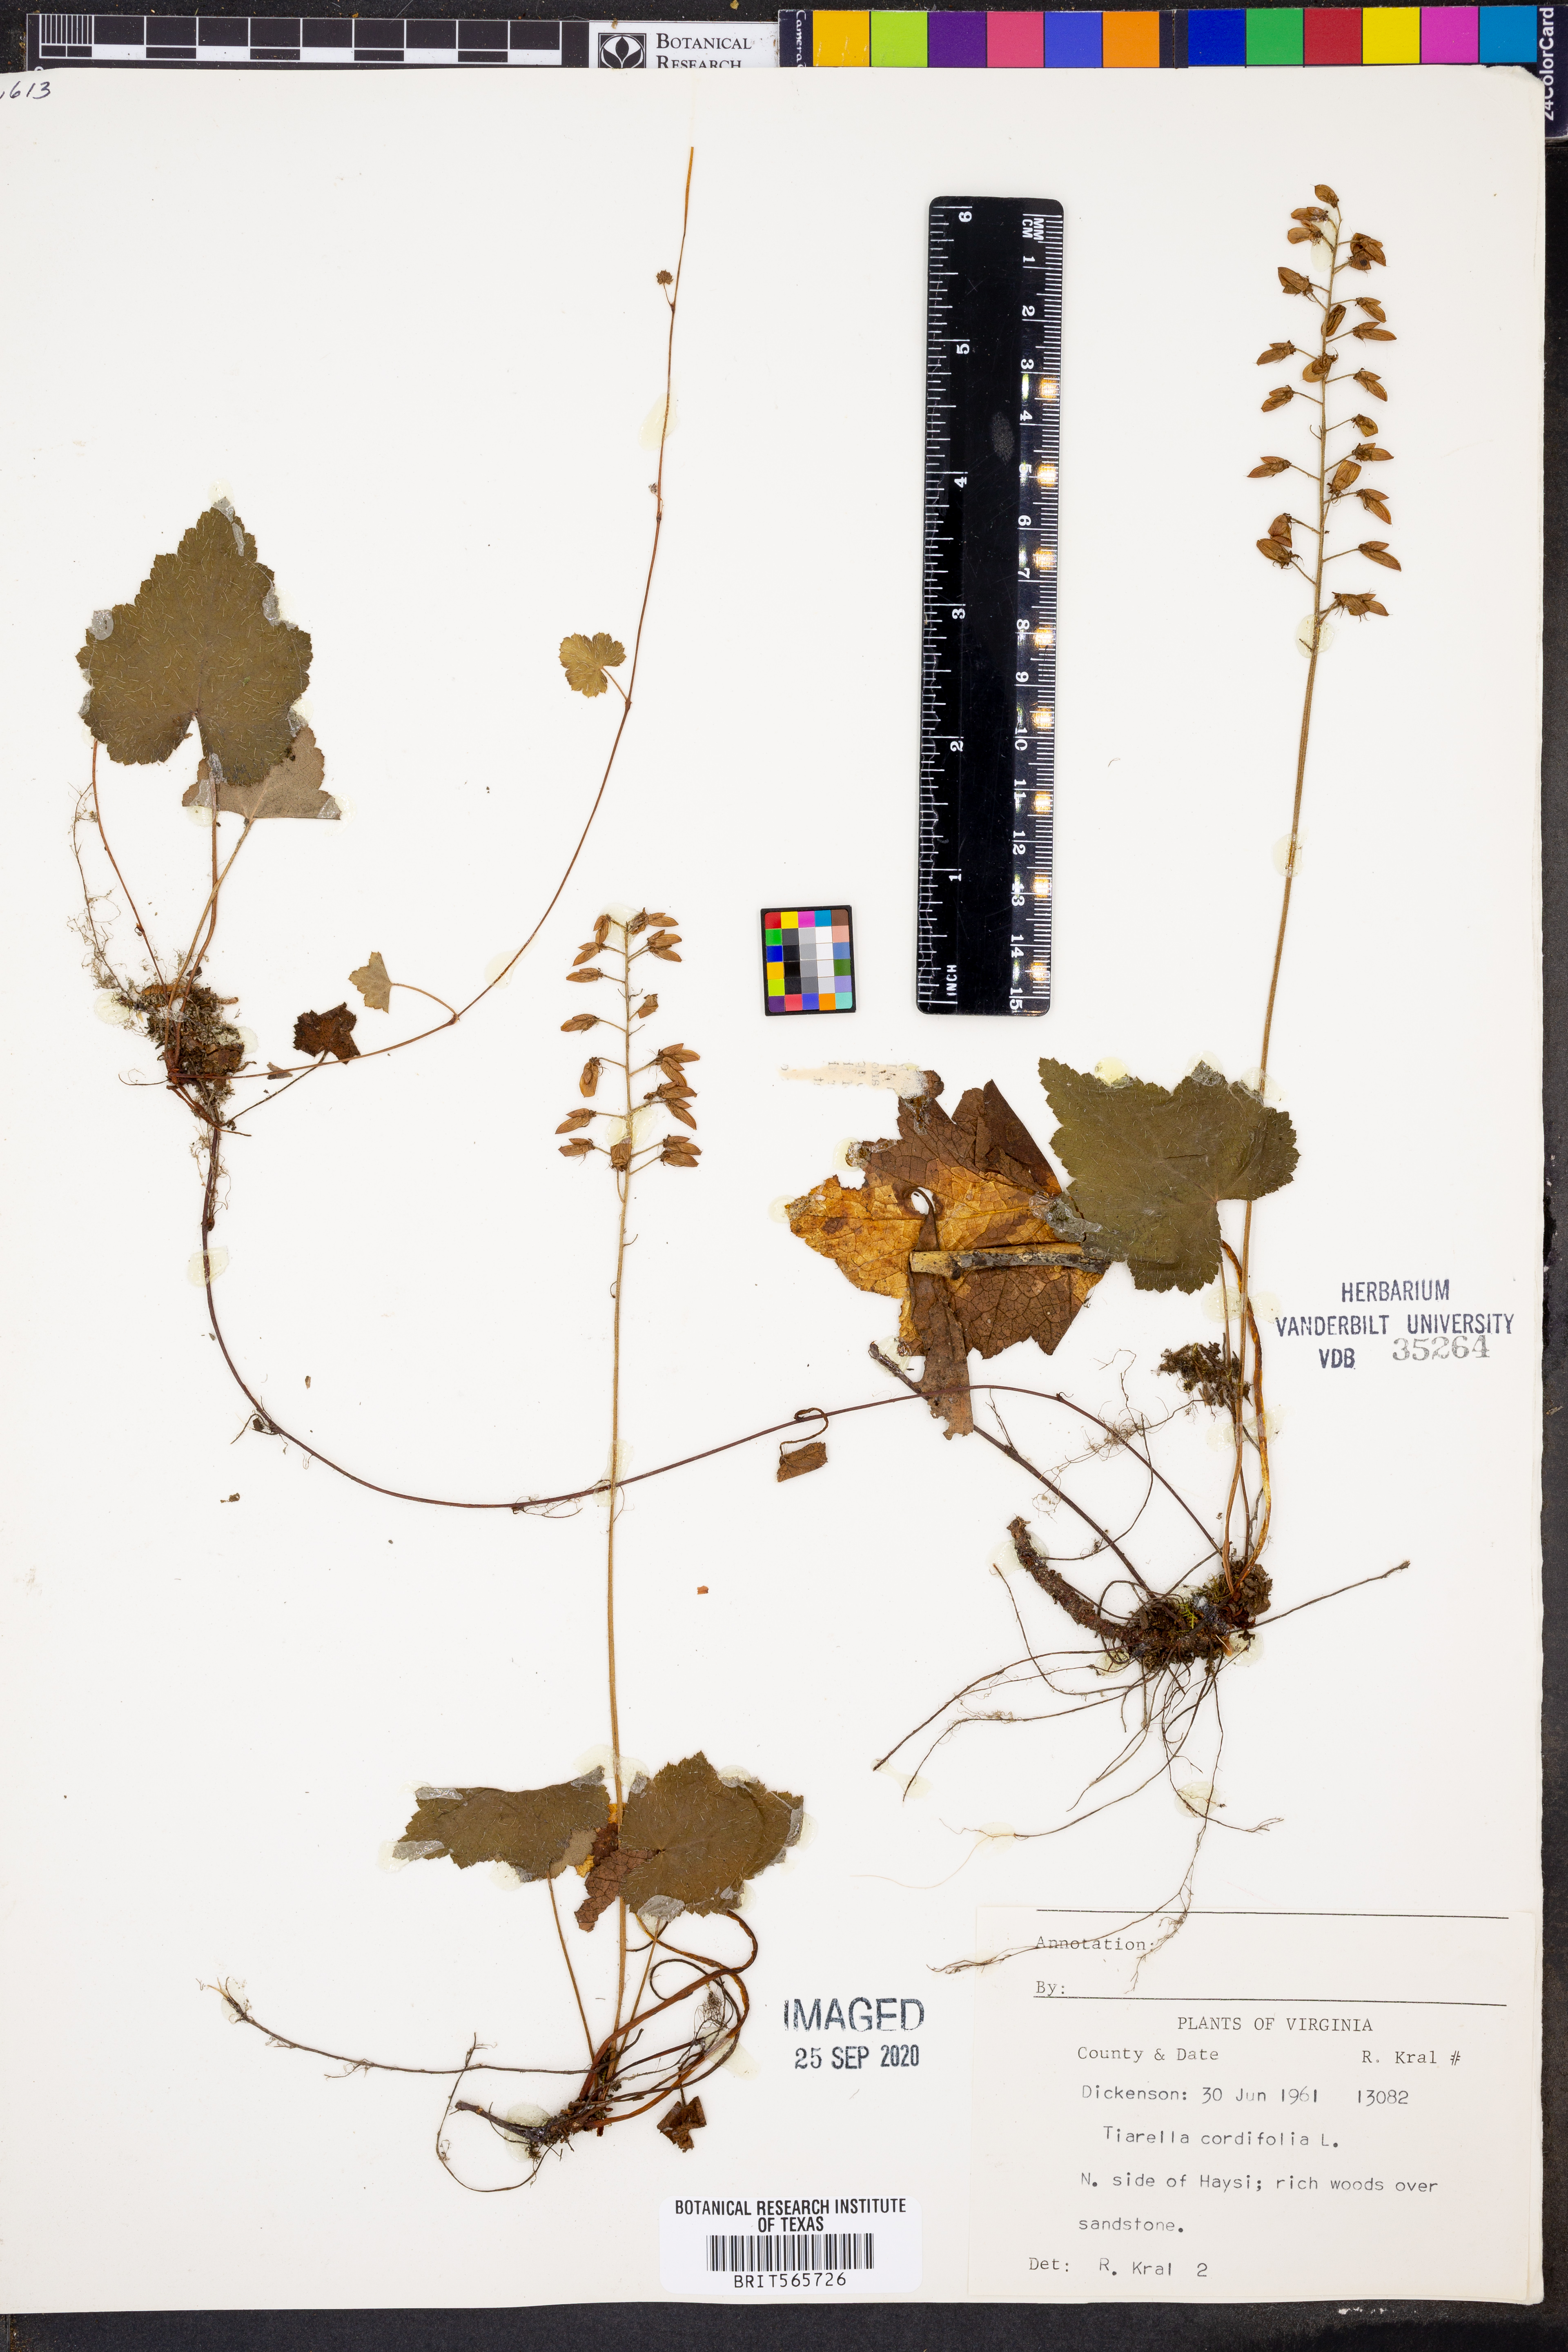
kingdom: Plantae
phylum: Tracheophyta
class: Magnoliopsida
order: Saxifragales
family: Saxifragaceae
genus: Tiarella
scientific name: Tiarella cordifolia
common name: Foamflower
